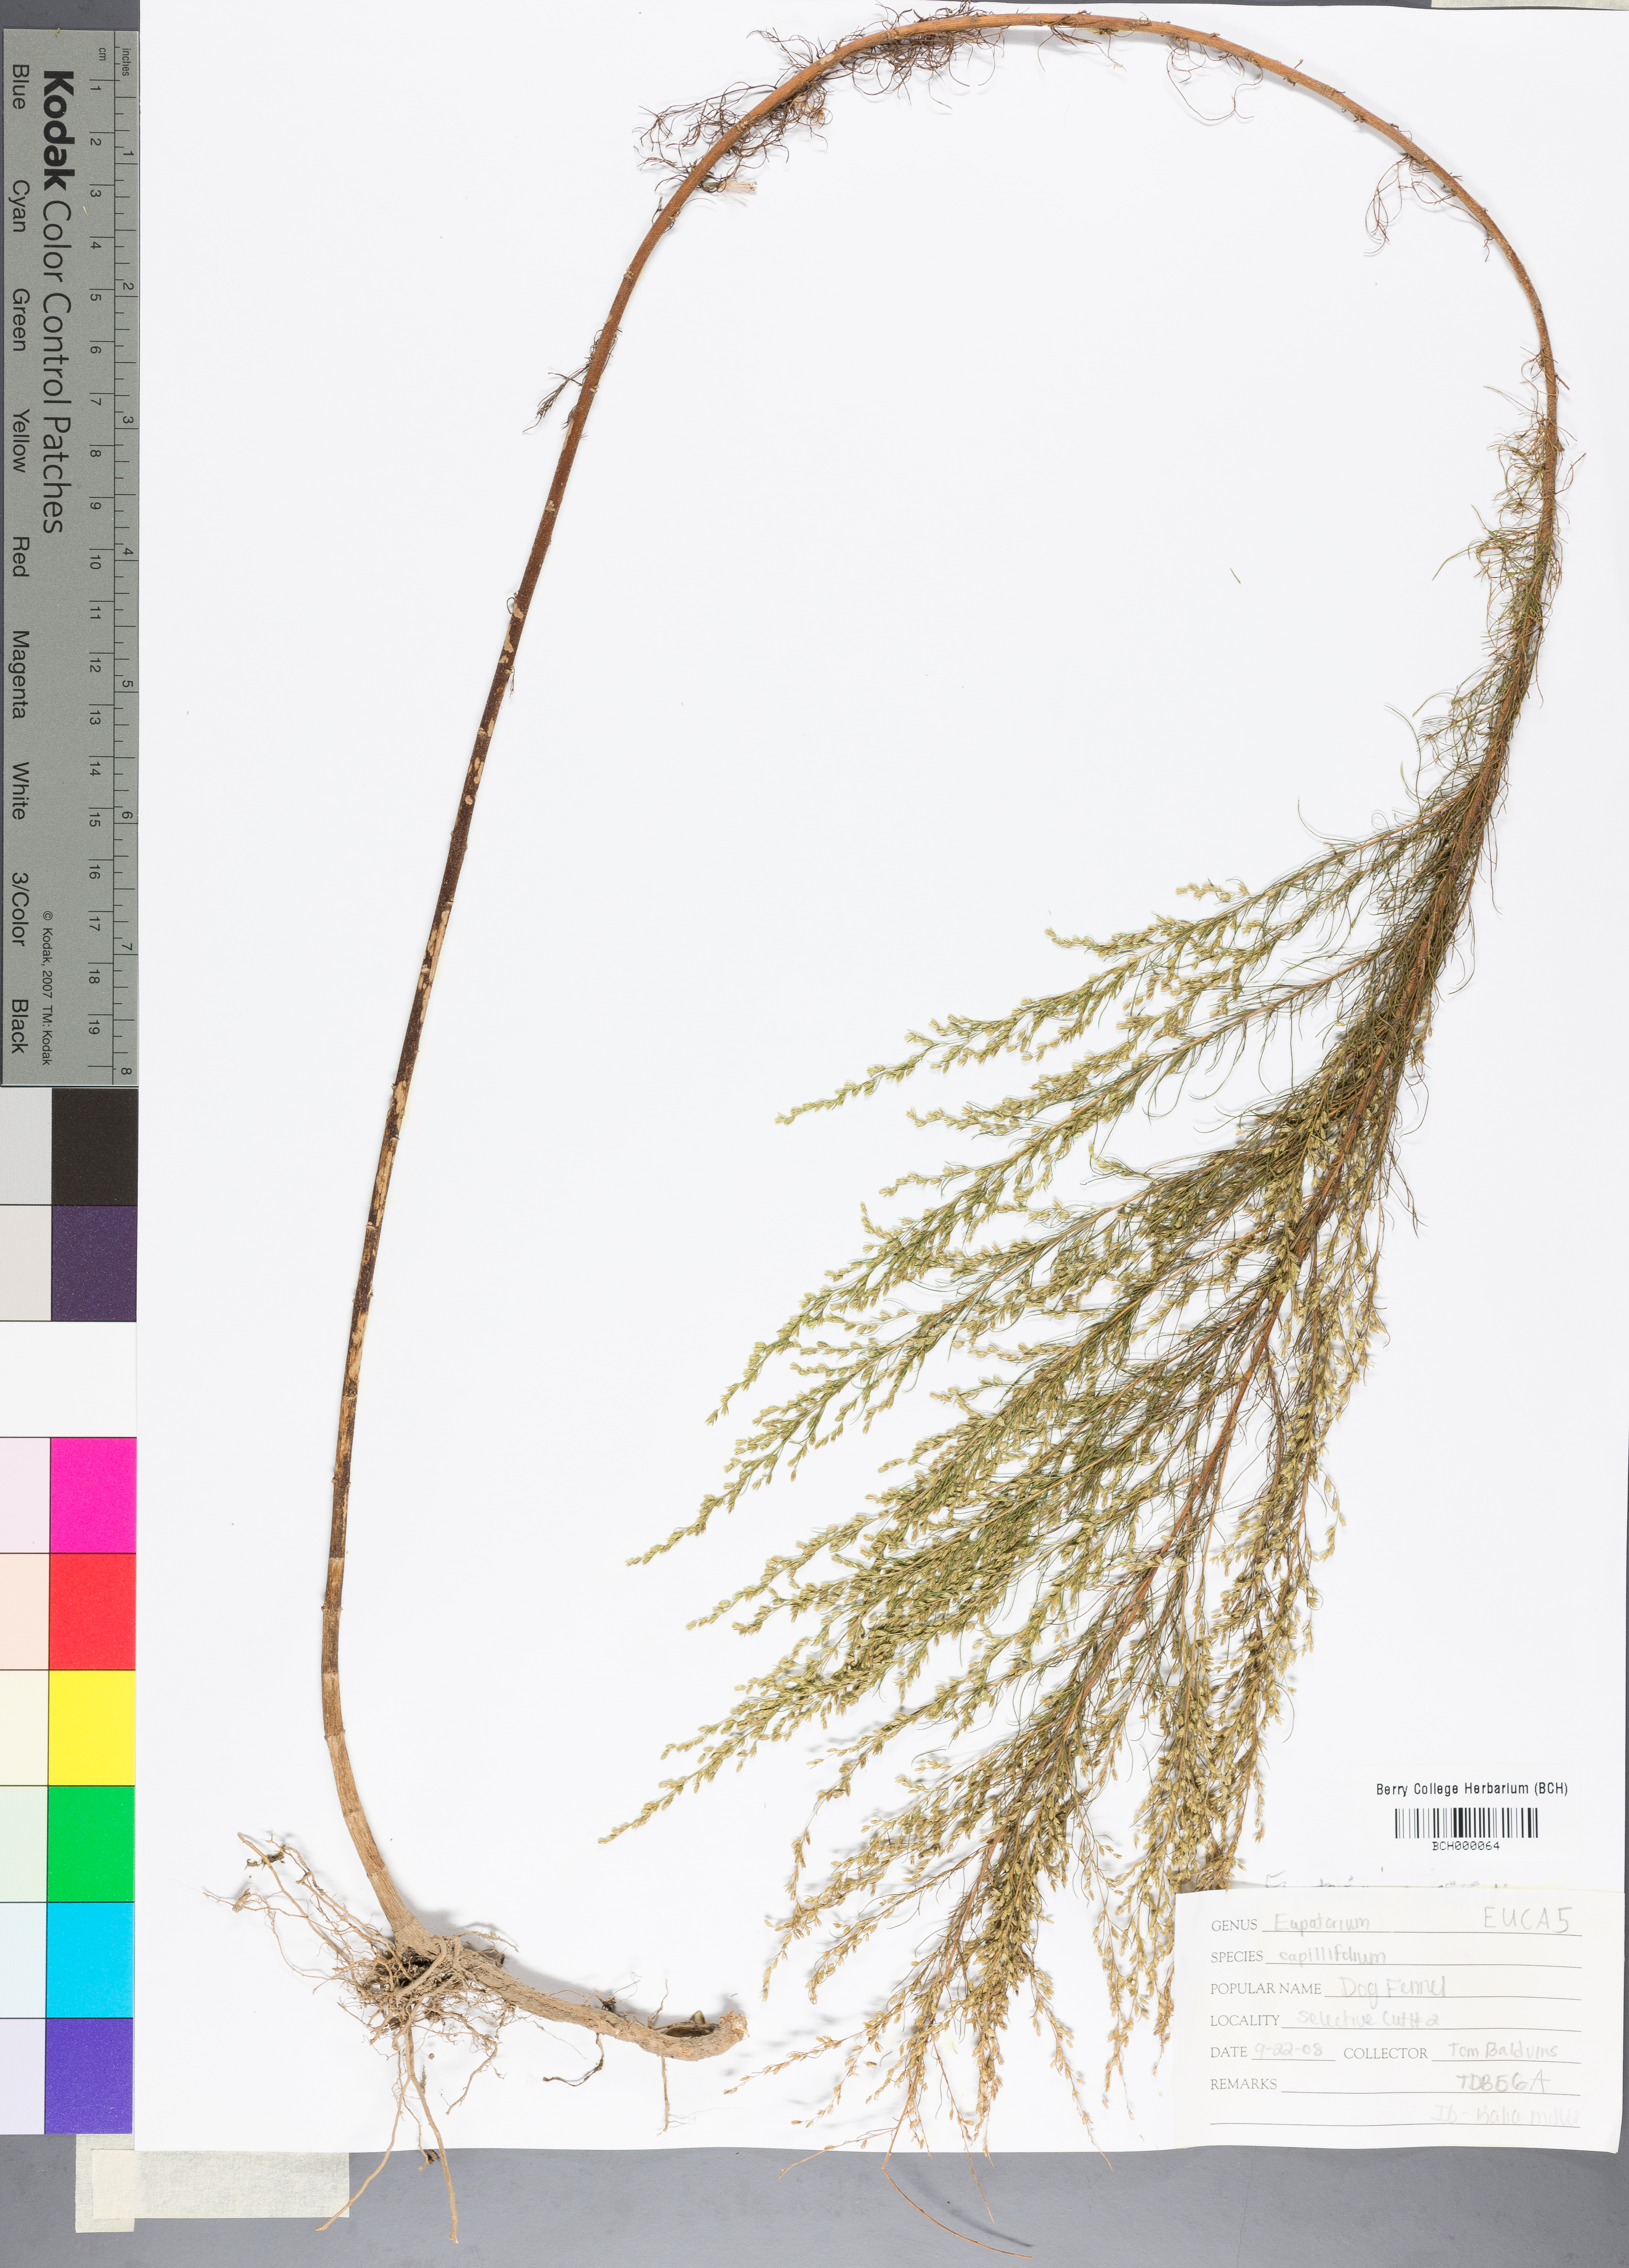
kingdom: Plantae
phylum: Tracheophyta
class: Magnoliopsida
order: Asterales
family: Asteraceae
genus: Eupatorium
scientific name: Eupatorium capillifolium
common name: Dog-fennel
